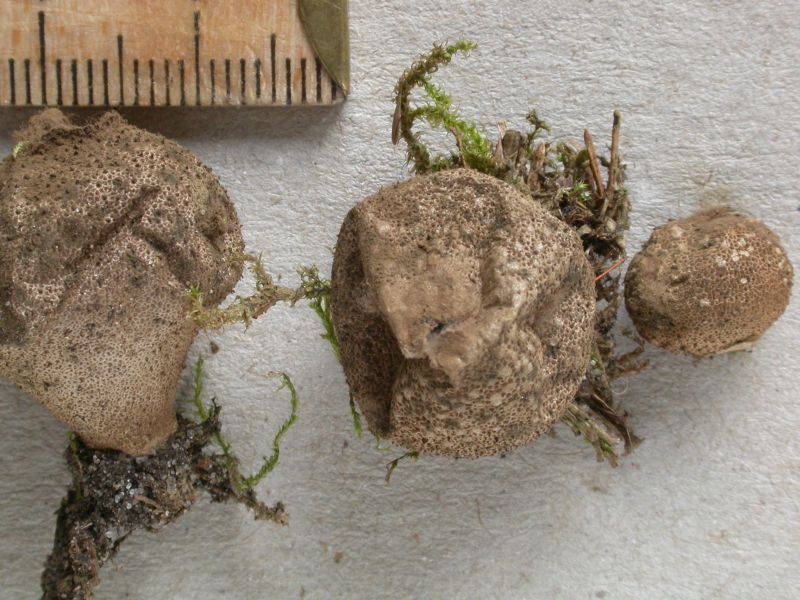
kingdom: Fungi
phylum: Basidiomycota
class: Agaricomycetes
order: Agaricales
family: Agaricaceae
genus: Lycoperdon
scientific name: Lycoperdon
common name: støvbold
